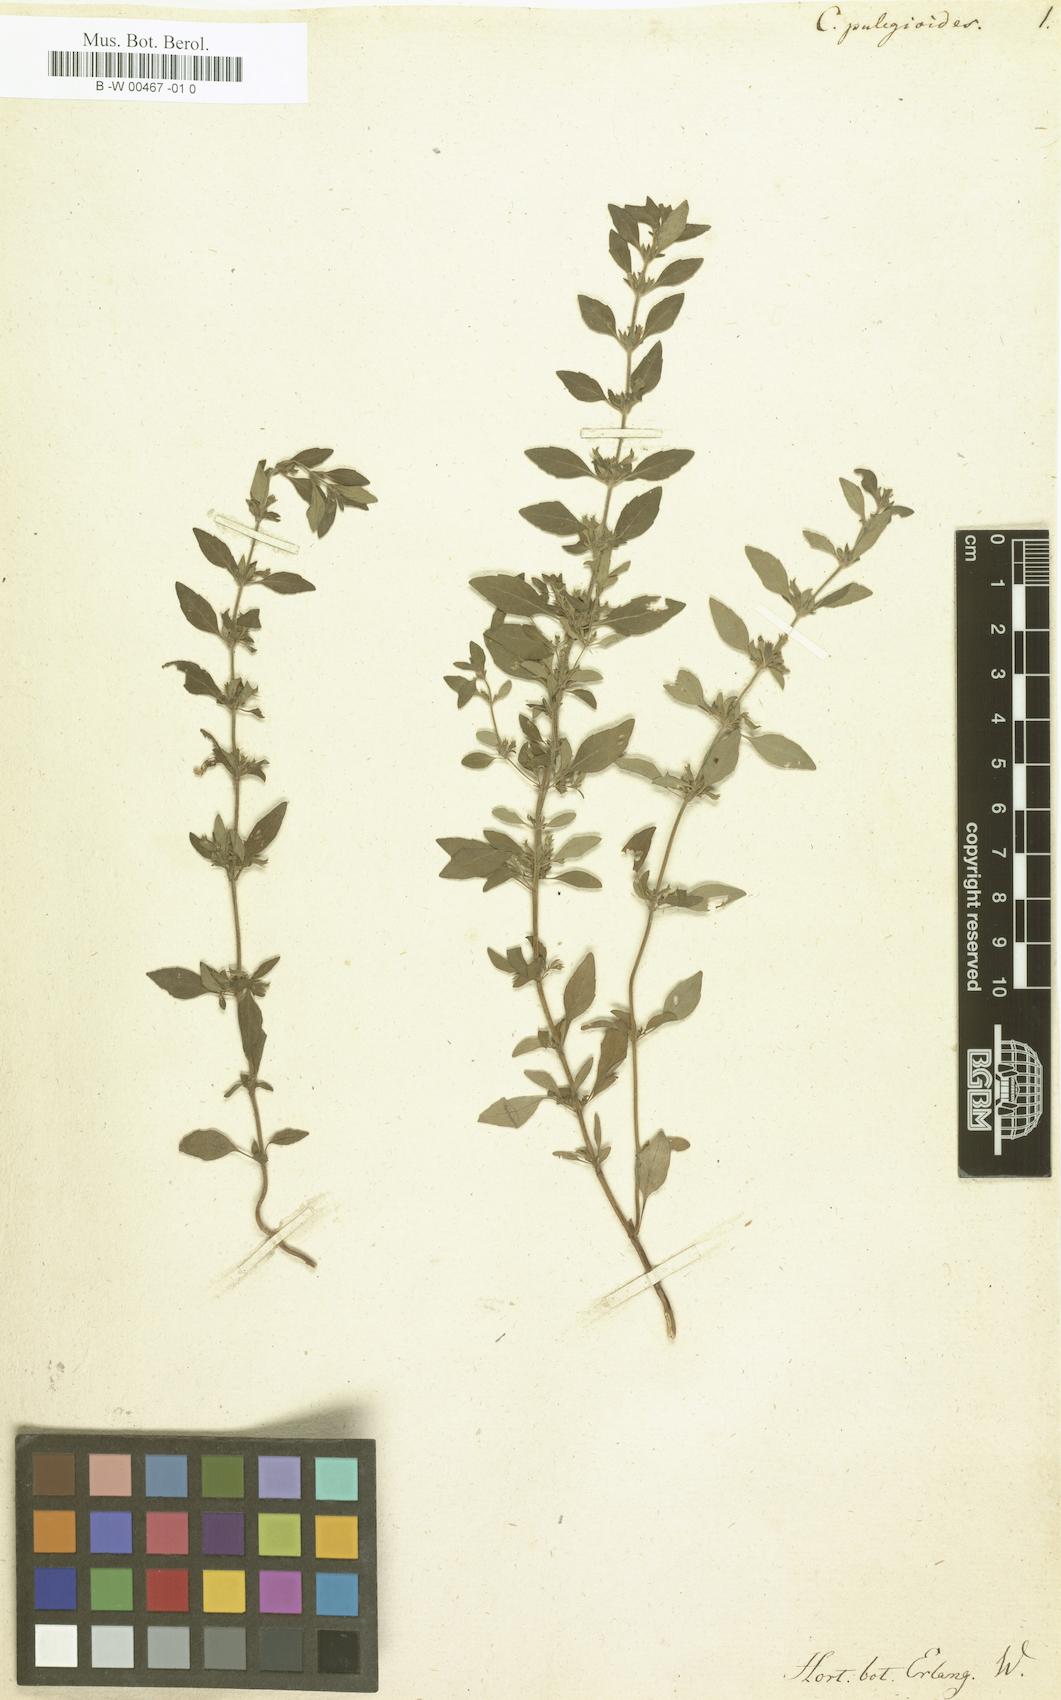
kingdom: Plantae
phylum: Tracheophyta
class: Magnoliopsida
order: Lamiales
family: Lamiaceae
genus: Hedeoma
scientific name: Hedeoma pulegioides
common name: American false pennyroyal
